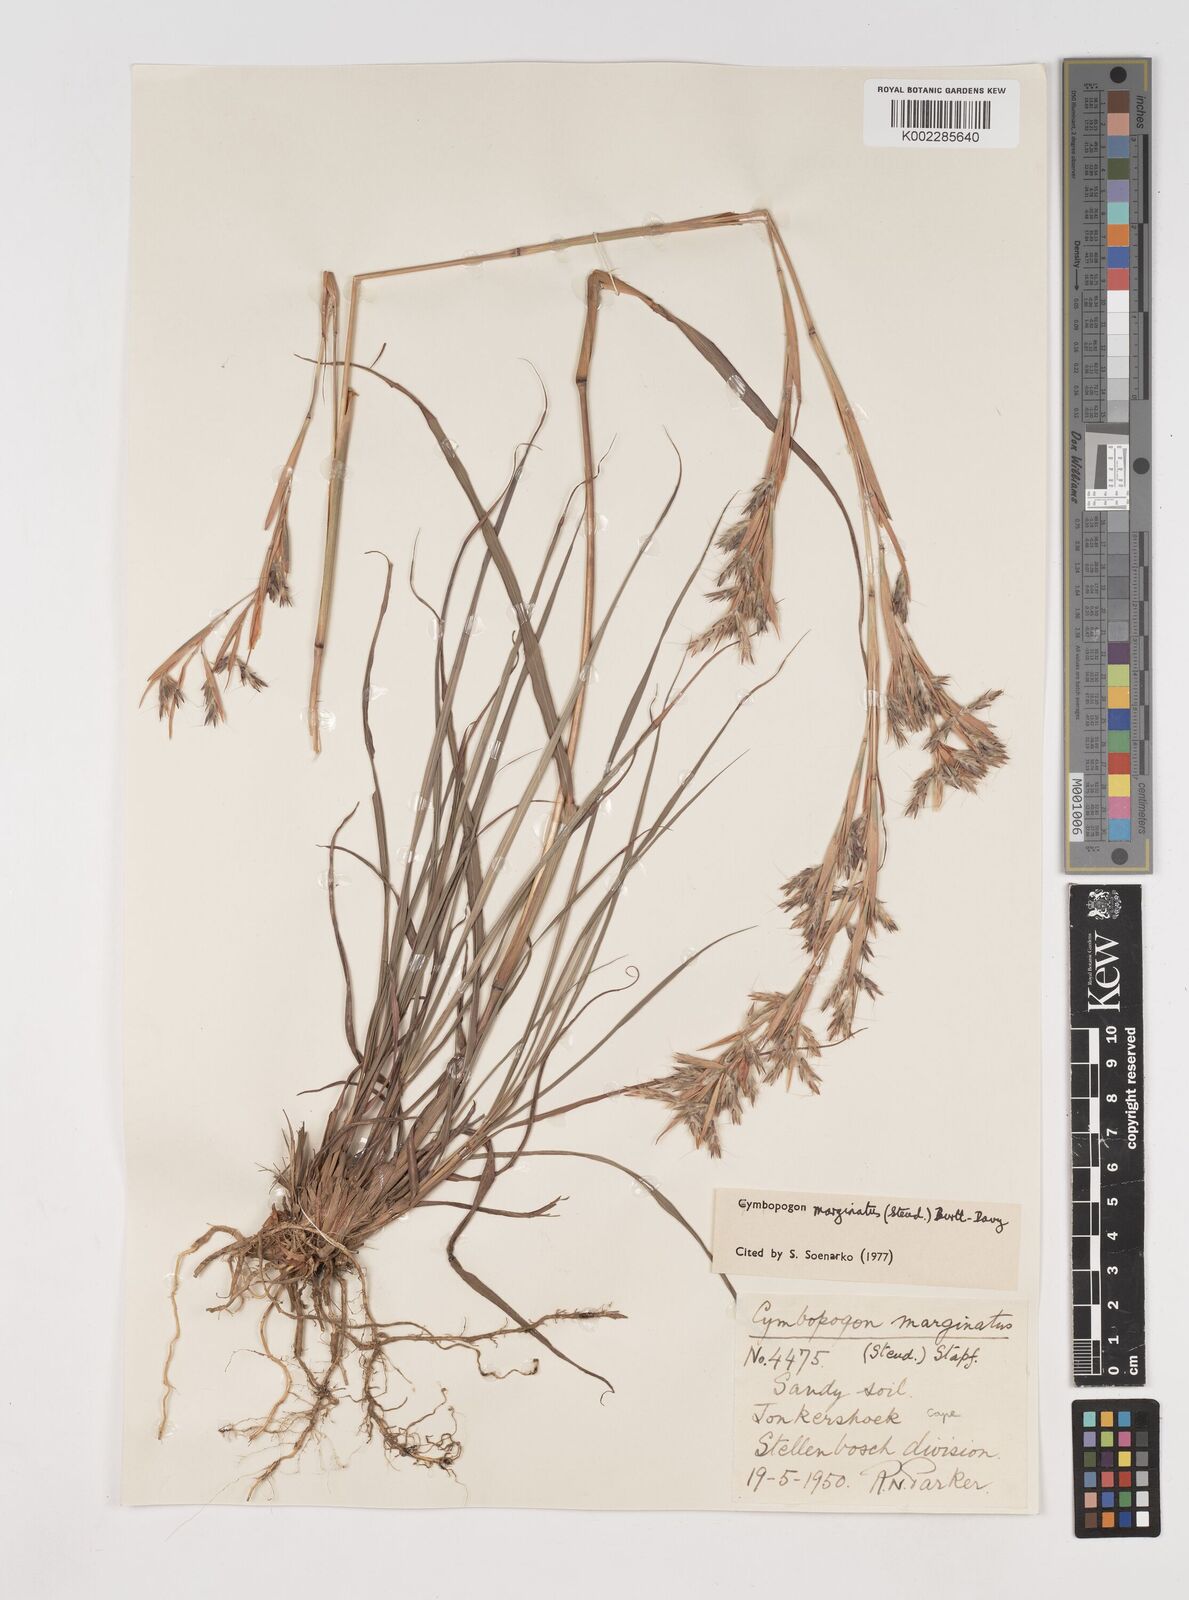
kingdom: Plantae
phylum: Tracheophyta
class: Liliopsida
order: Poales
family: Poaceae
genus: Cymbopogon
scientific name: Cymbopogon marginatus
